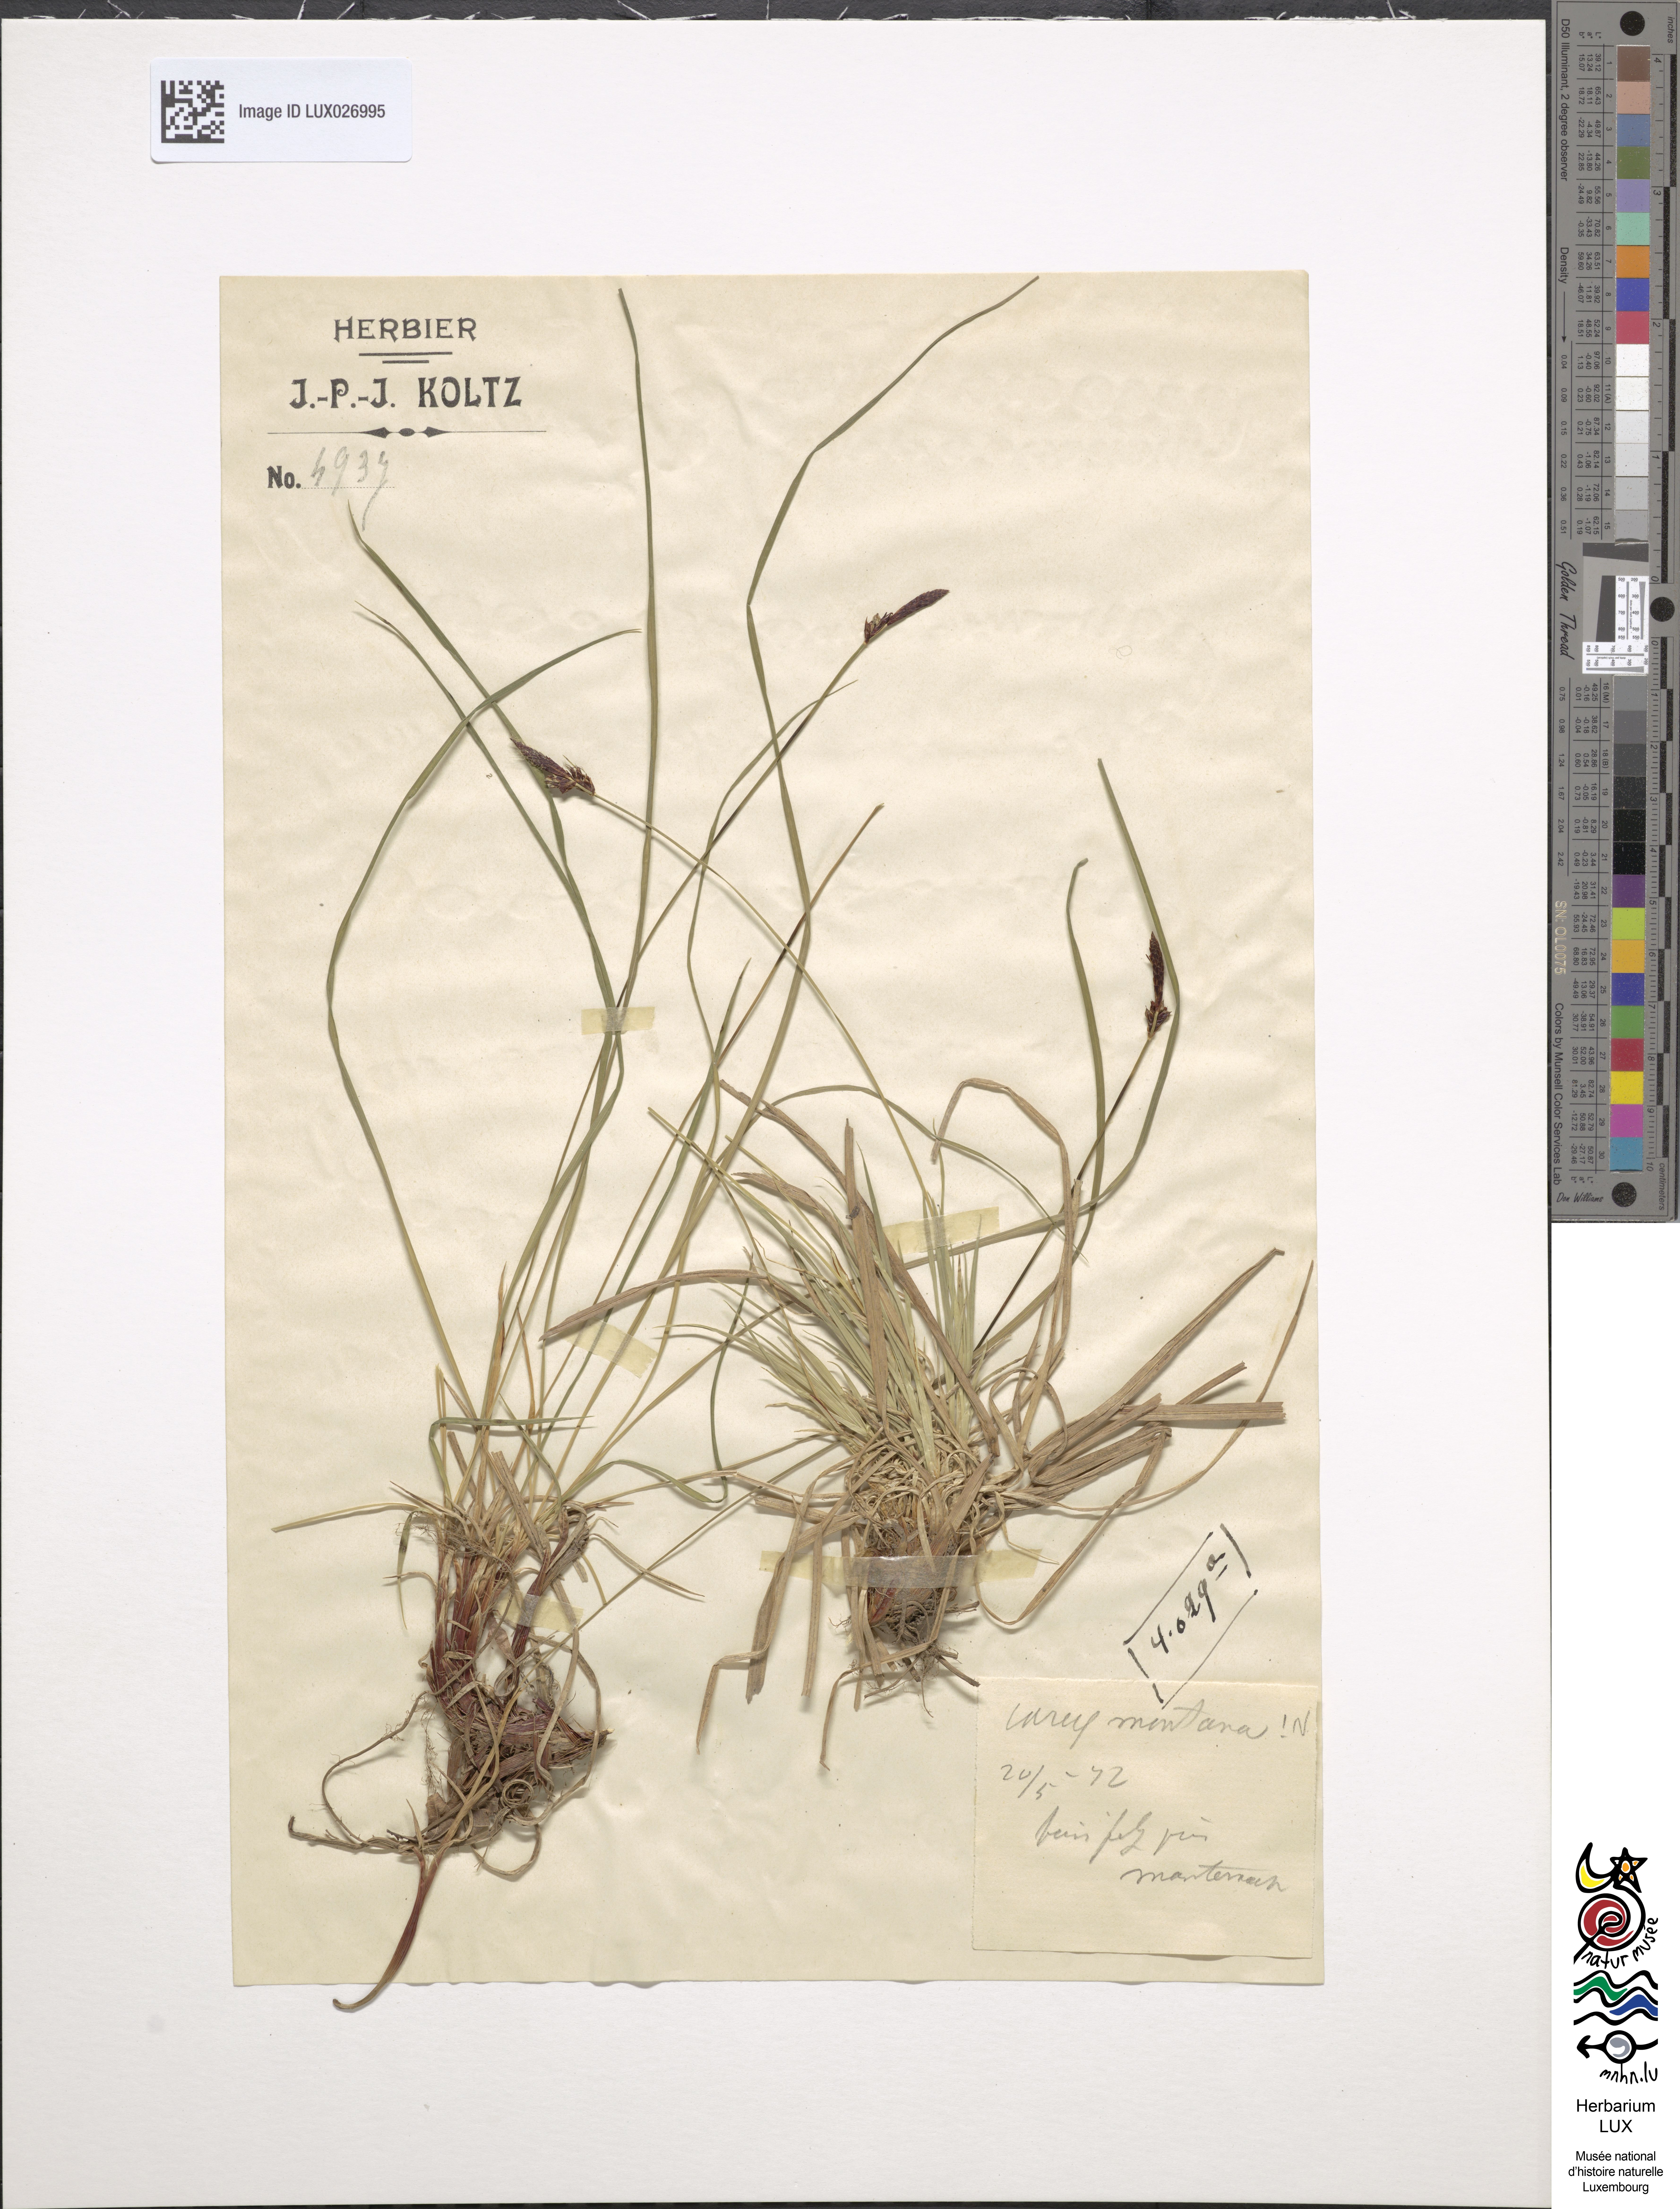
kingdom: Plantae
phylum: Tracheophyta
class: Liliopsida
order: Poales
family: Cyperaceae
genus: Carex
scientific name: Carex montana
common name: Soft-leaved sedge
